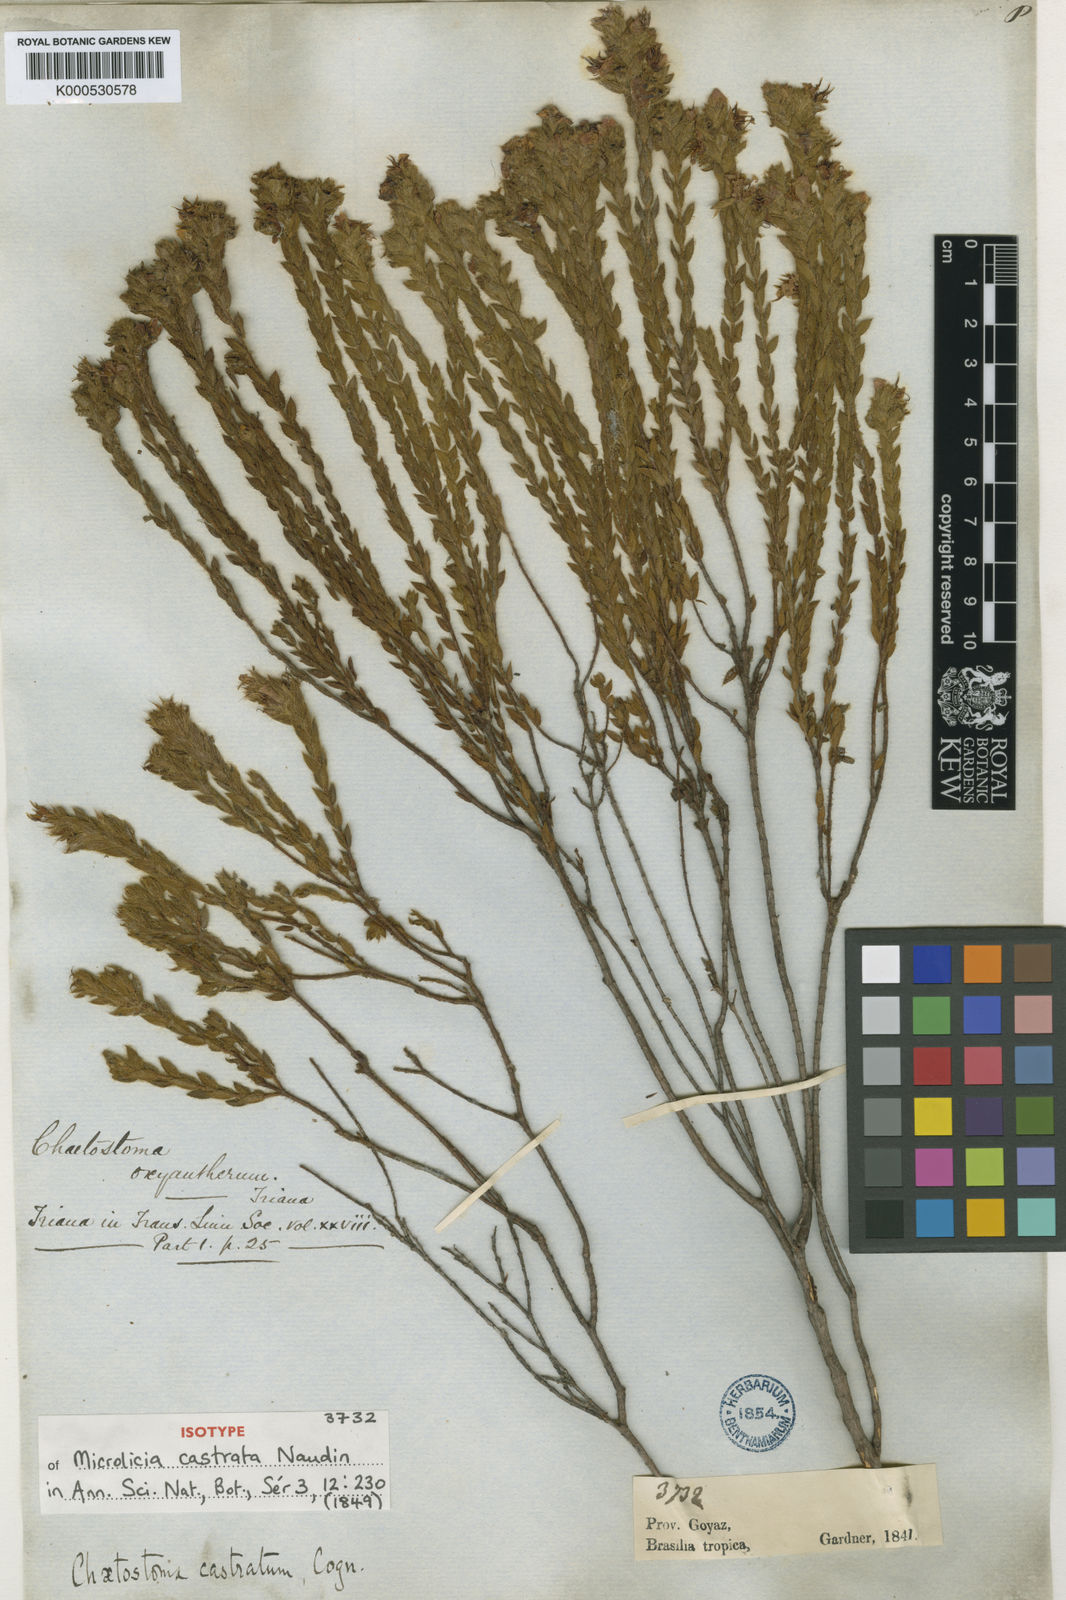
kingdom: Plantae
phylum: Tracheophyta
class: Magnoliopsida
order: Myrtales
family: Melastomataceae
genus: Microlicia
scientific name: Microlicia
